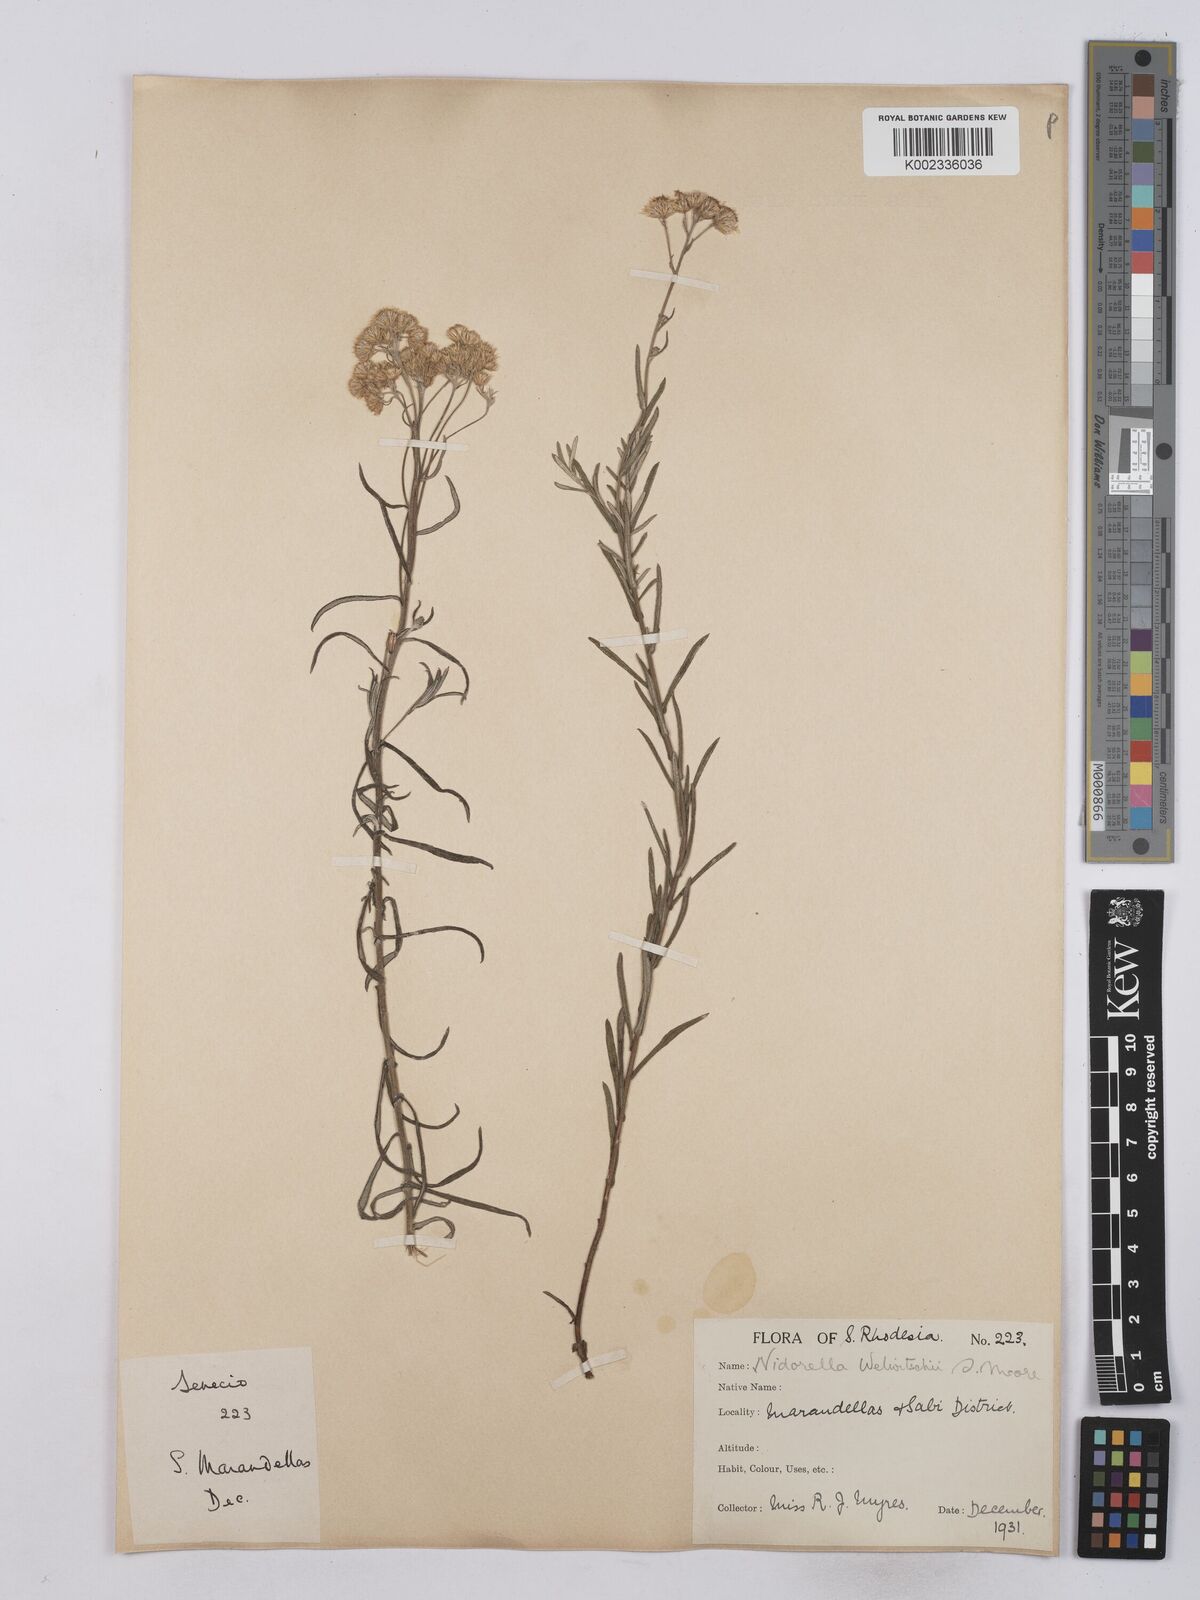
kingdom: Plantae
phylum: Tracheophyta
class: Magnoliopsida
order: Asterales
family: Asteraceae
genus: Nidorella
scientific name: Nidorella welwitschii
